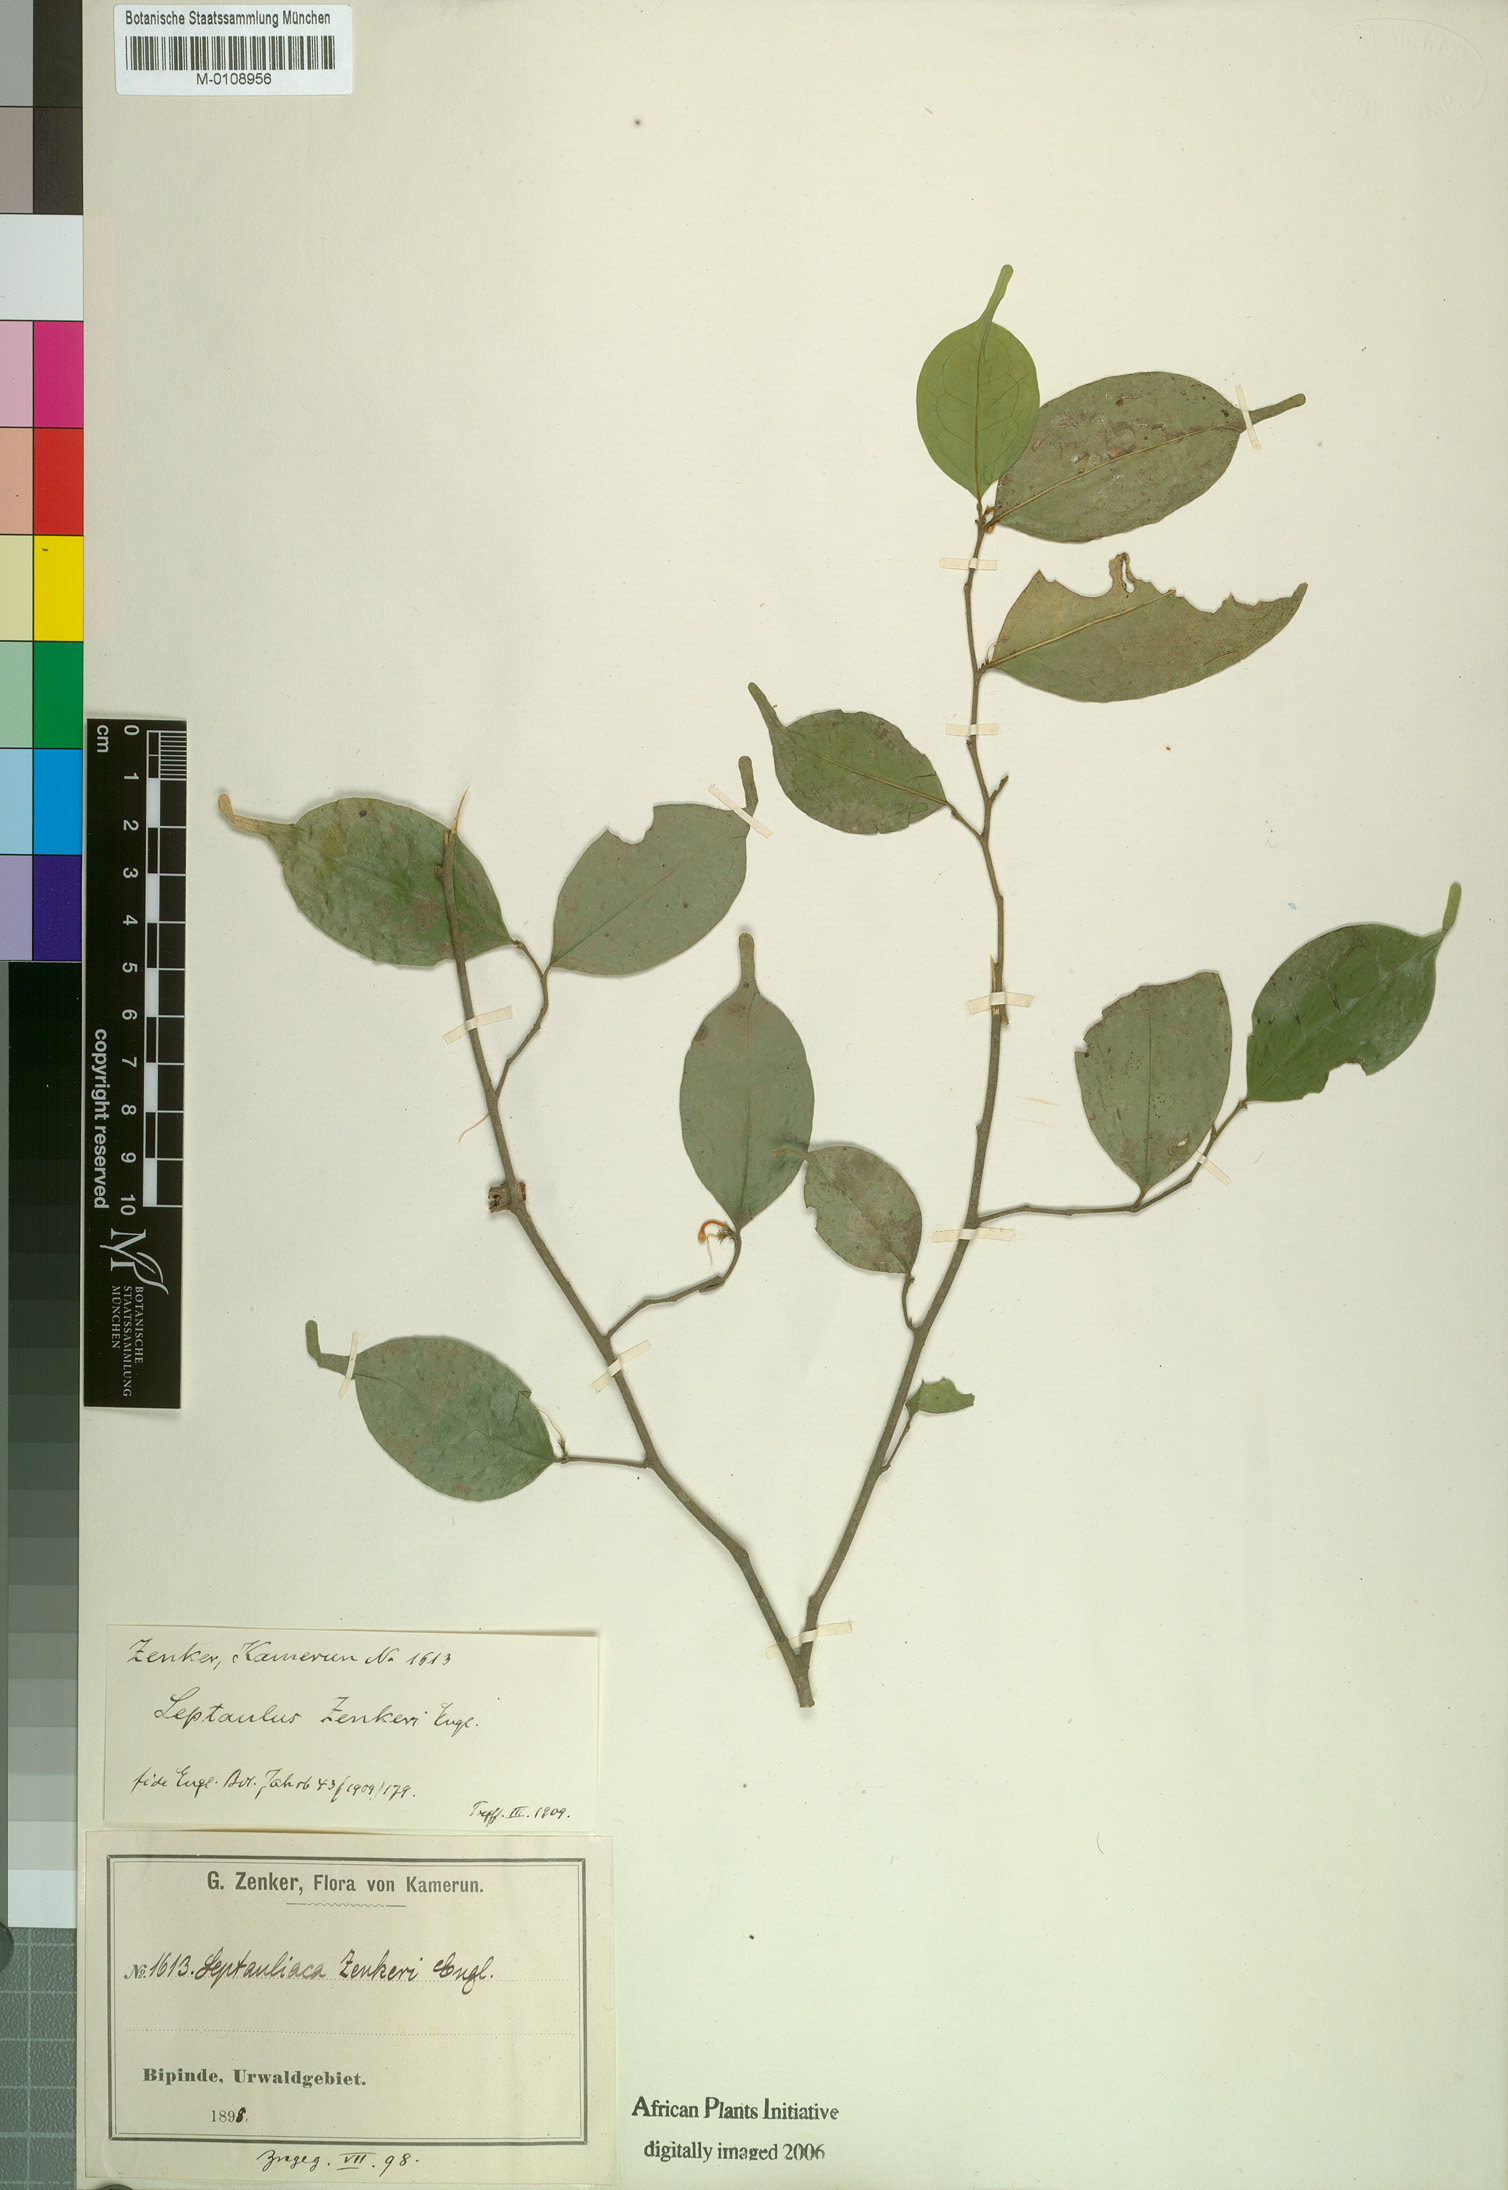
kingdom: Plantae
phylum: Tracheophyta
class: Magnoliopsida
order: Cardiopteridales
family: Cardiopteridaceae
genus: Leptaulus
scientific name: Leptaulus congolanus
